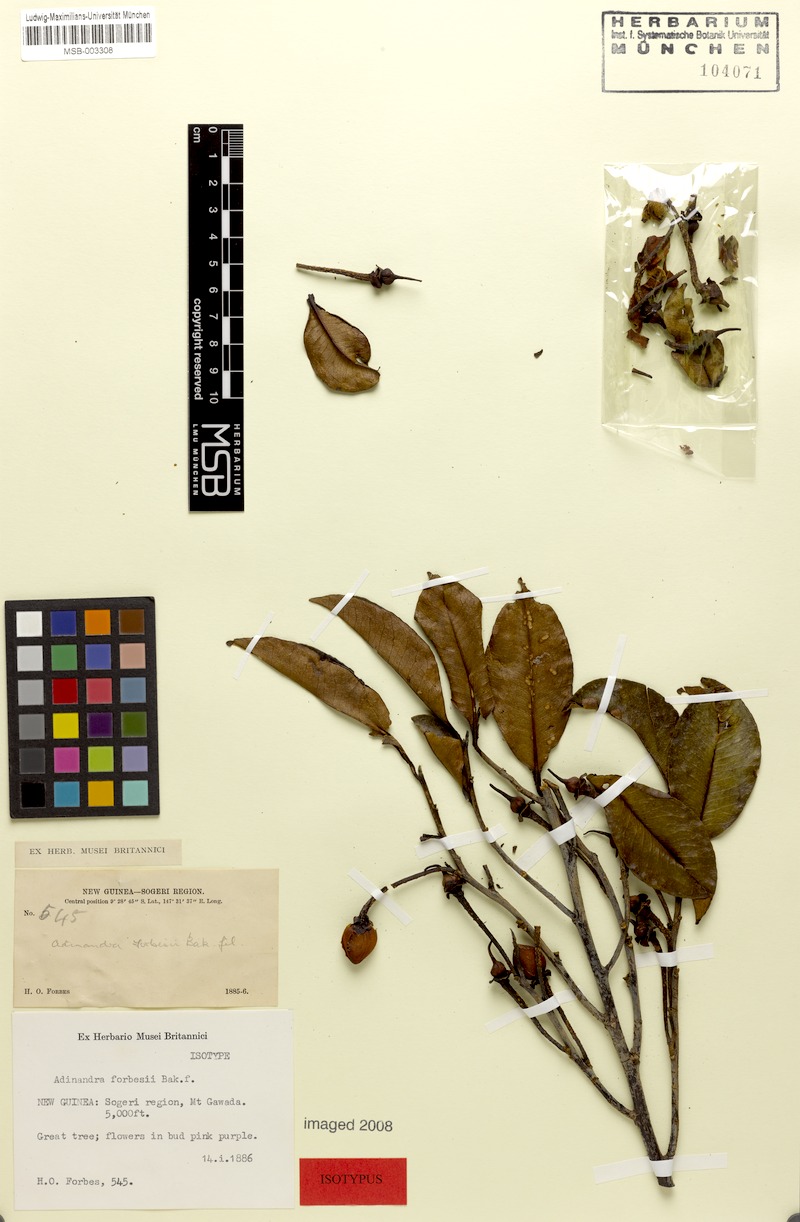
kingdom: Plantae
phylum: Tracheophyta
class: Magnoliopsida
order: Ericales
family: Pentaphylacaceae
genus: Adinandra
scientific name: Adinandra forbesii
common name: Oriomo redwood
